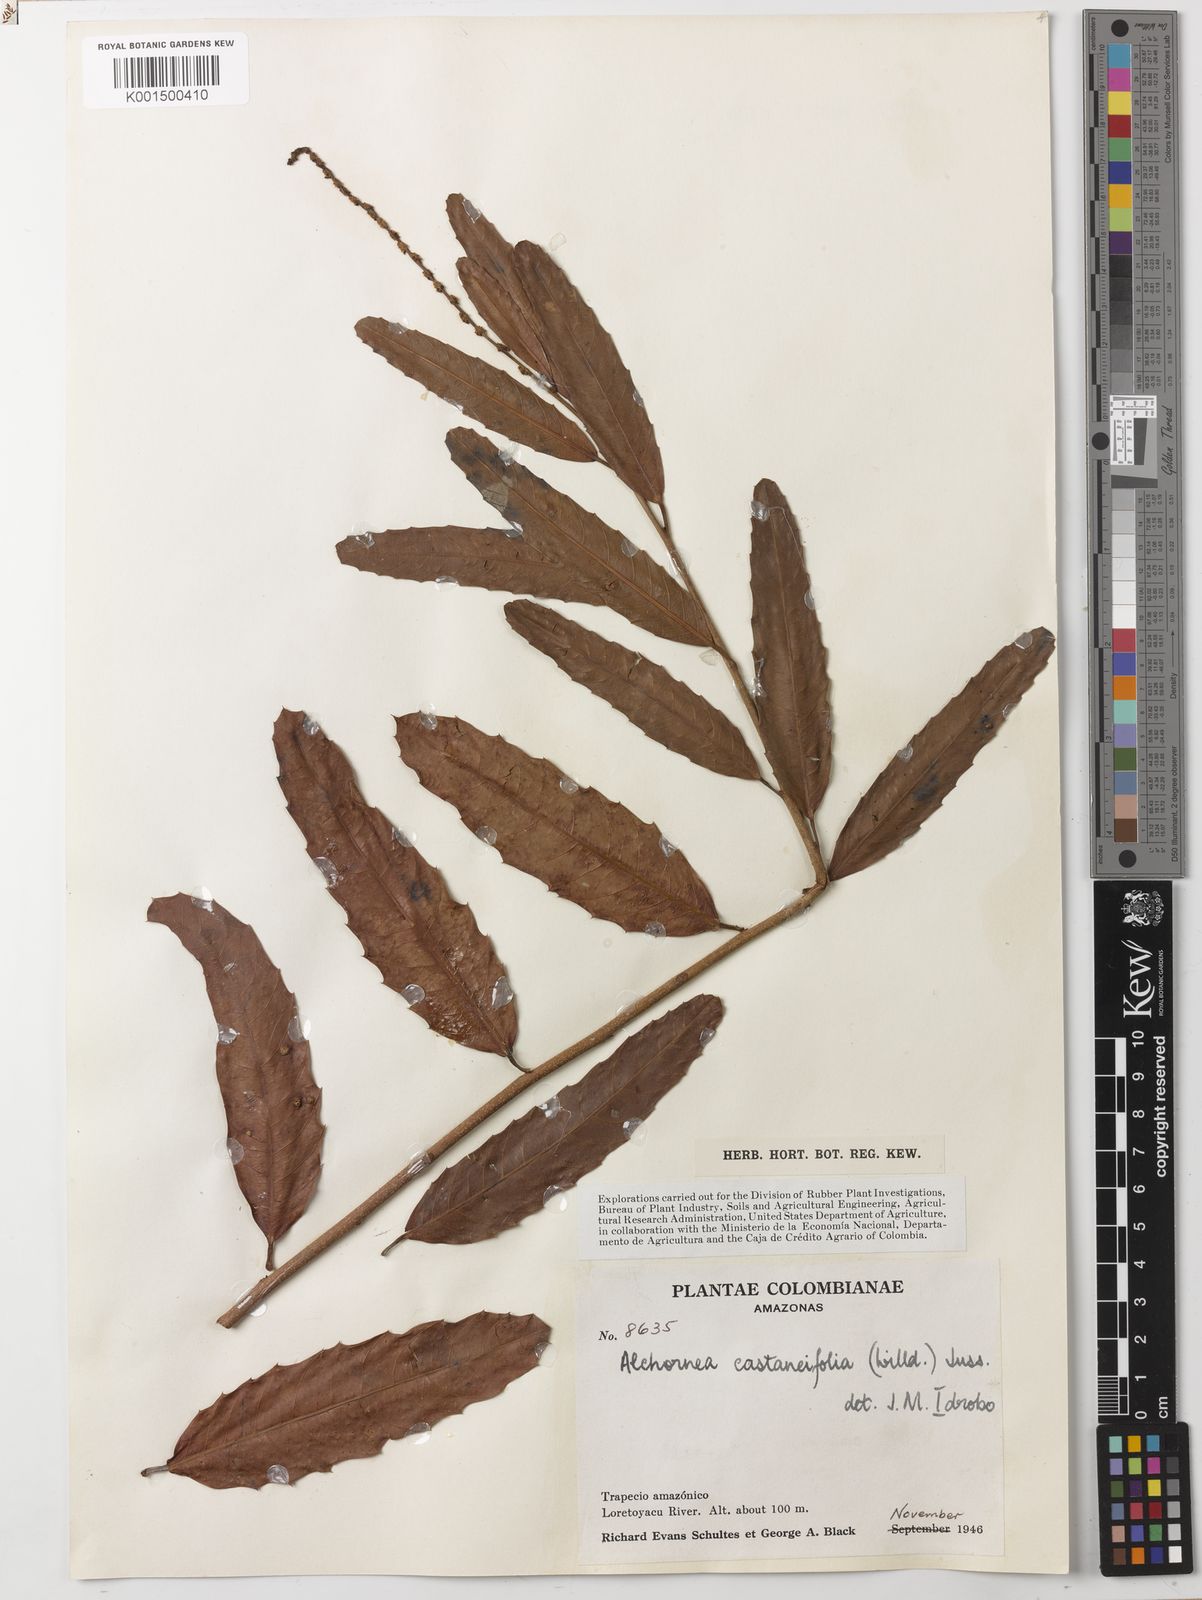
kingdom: Plantae
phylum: Tracheophyta
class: Magnoliopsida
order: Malpighiales
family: Euphorbiaceae
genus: Alchornea
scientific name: Alchornea castaneifolia
